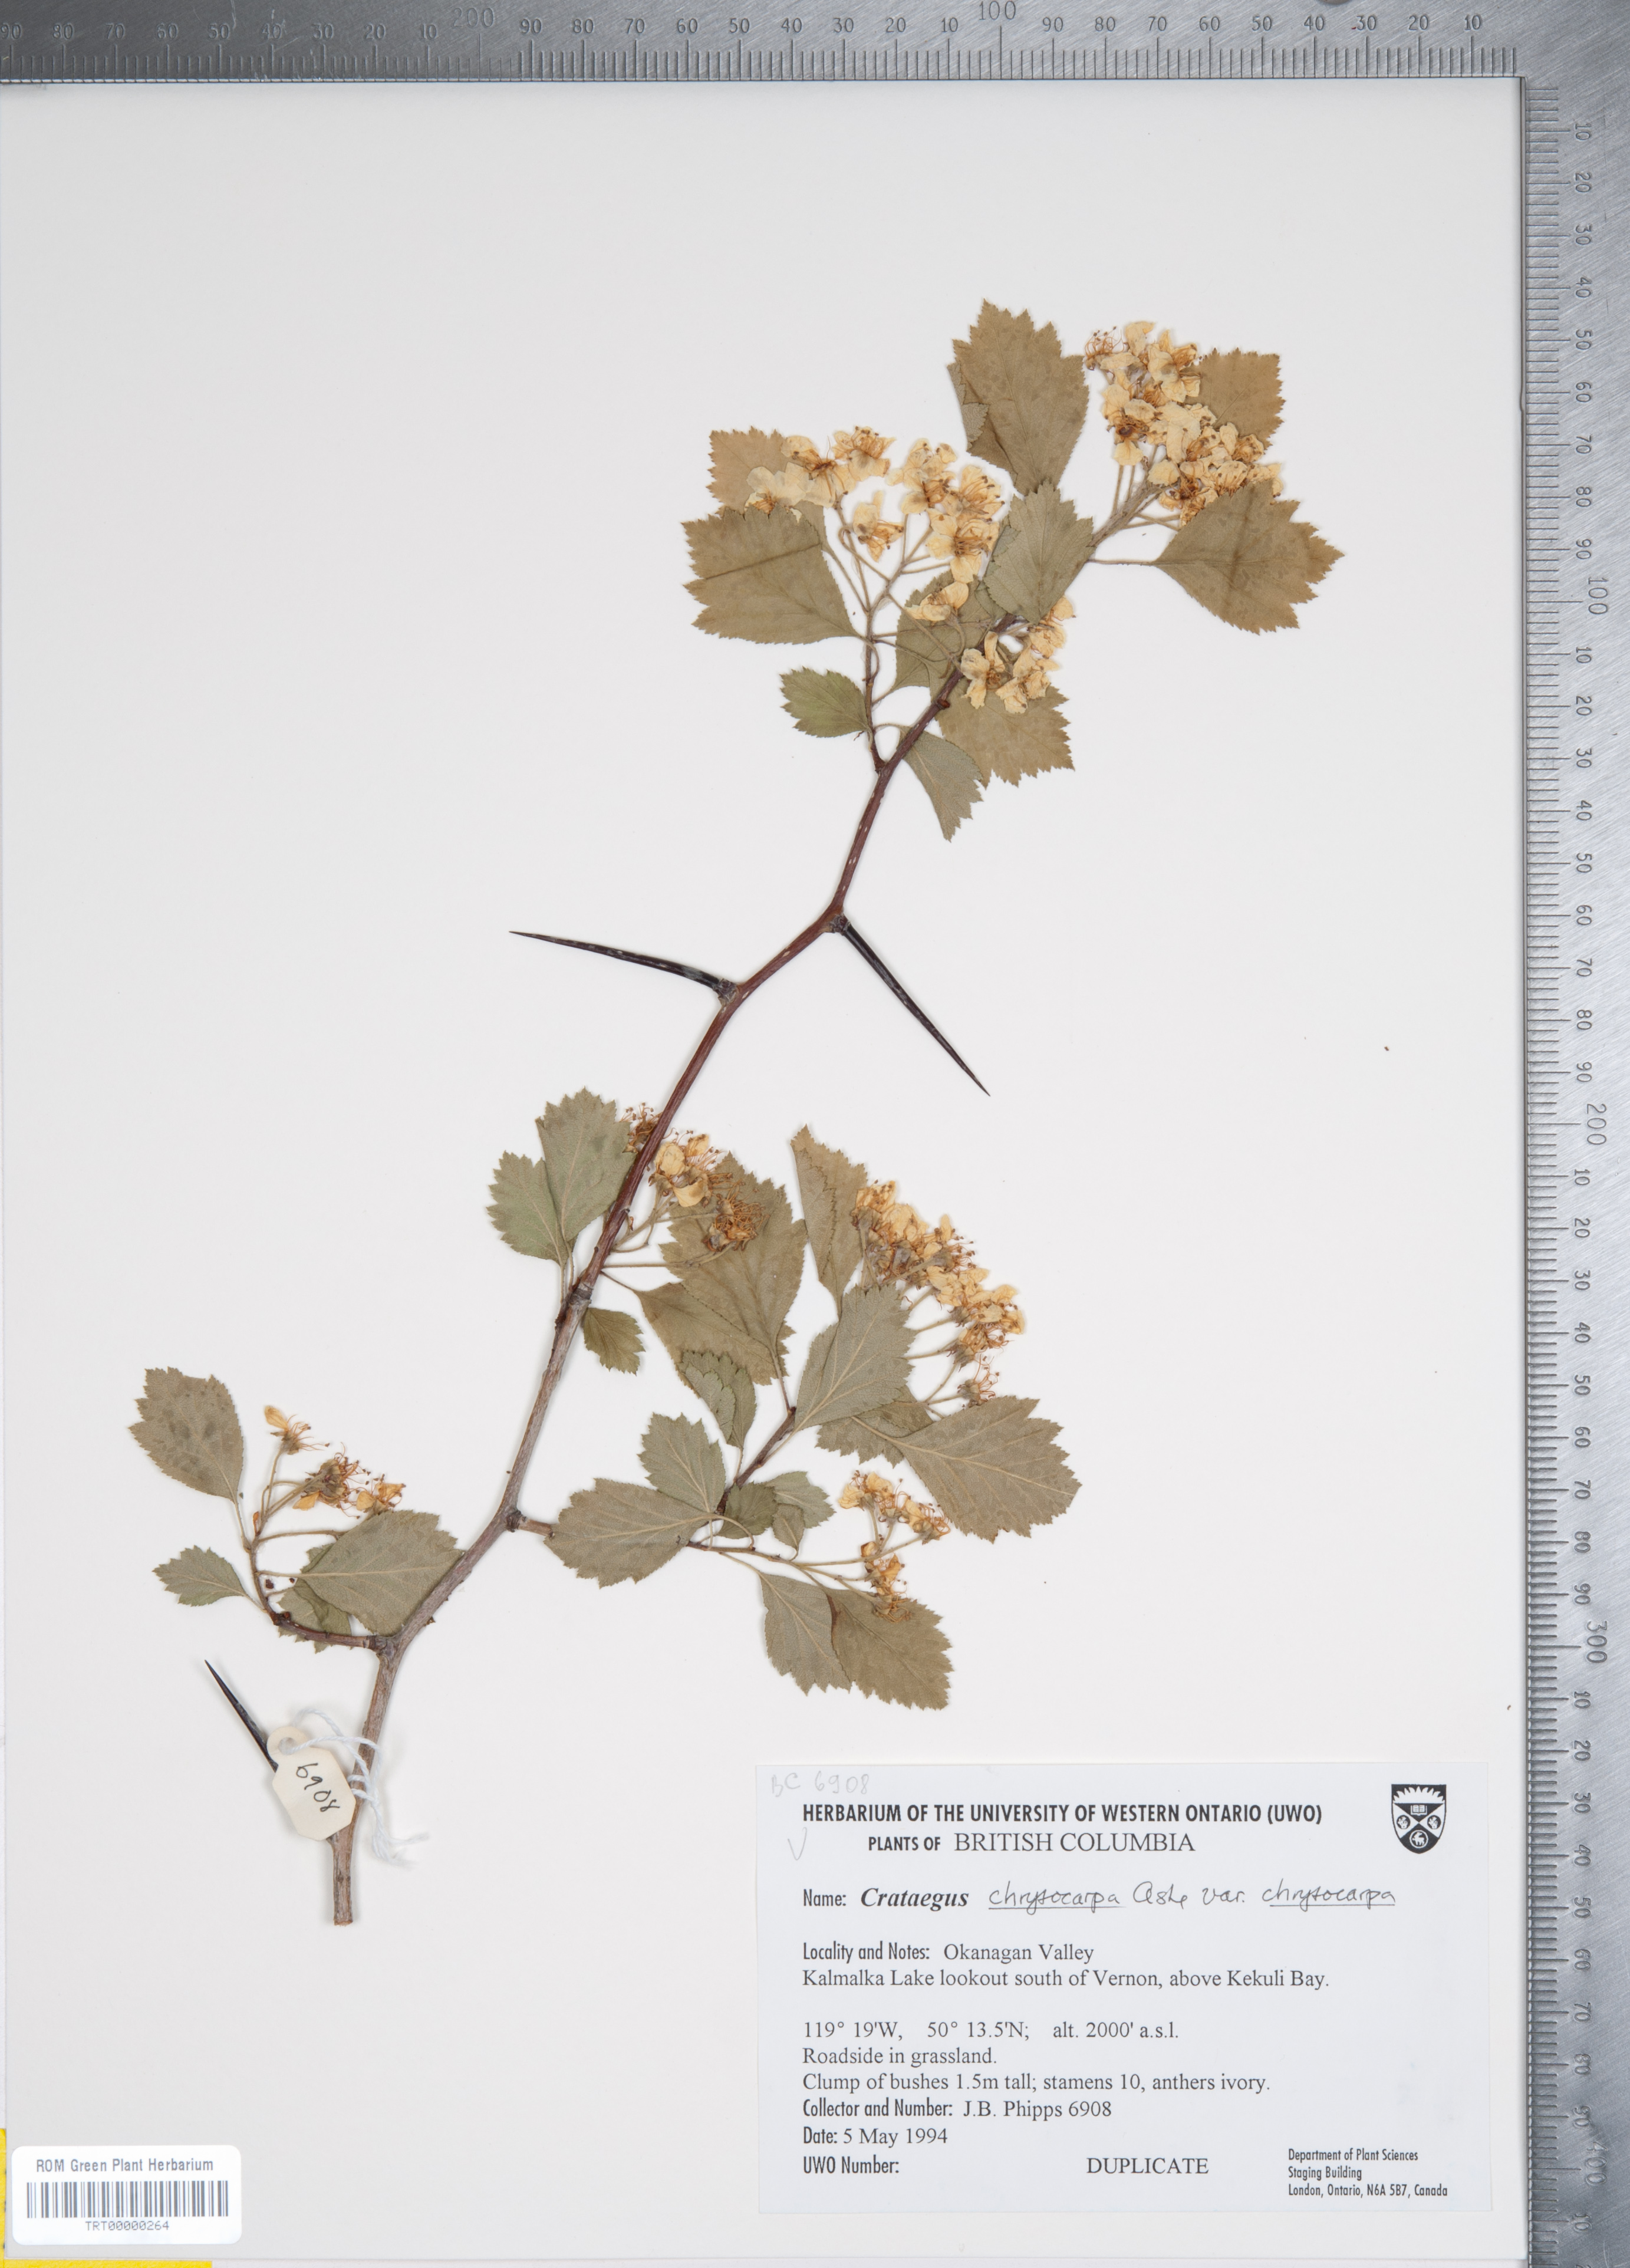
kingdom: Plantae
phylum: Tracheophyta
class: Magnoliopsida
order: Rosales
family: Rosaceae
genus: Crataegus
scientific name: Crataegus chrysocarpa
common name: Fire-berry hawthorn
